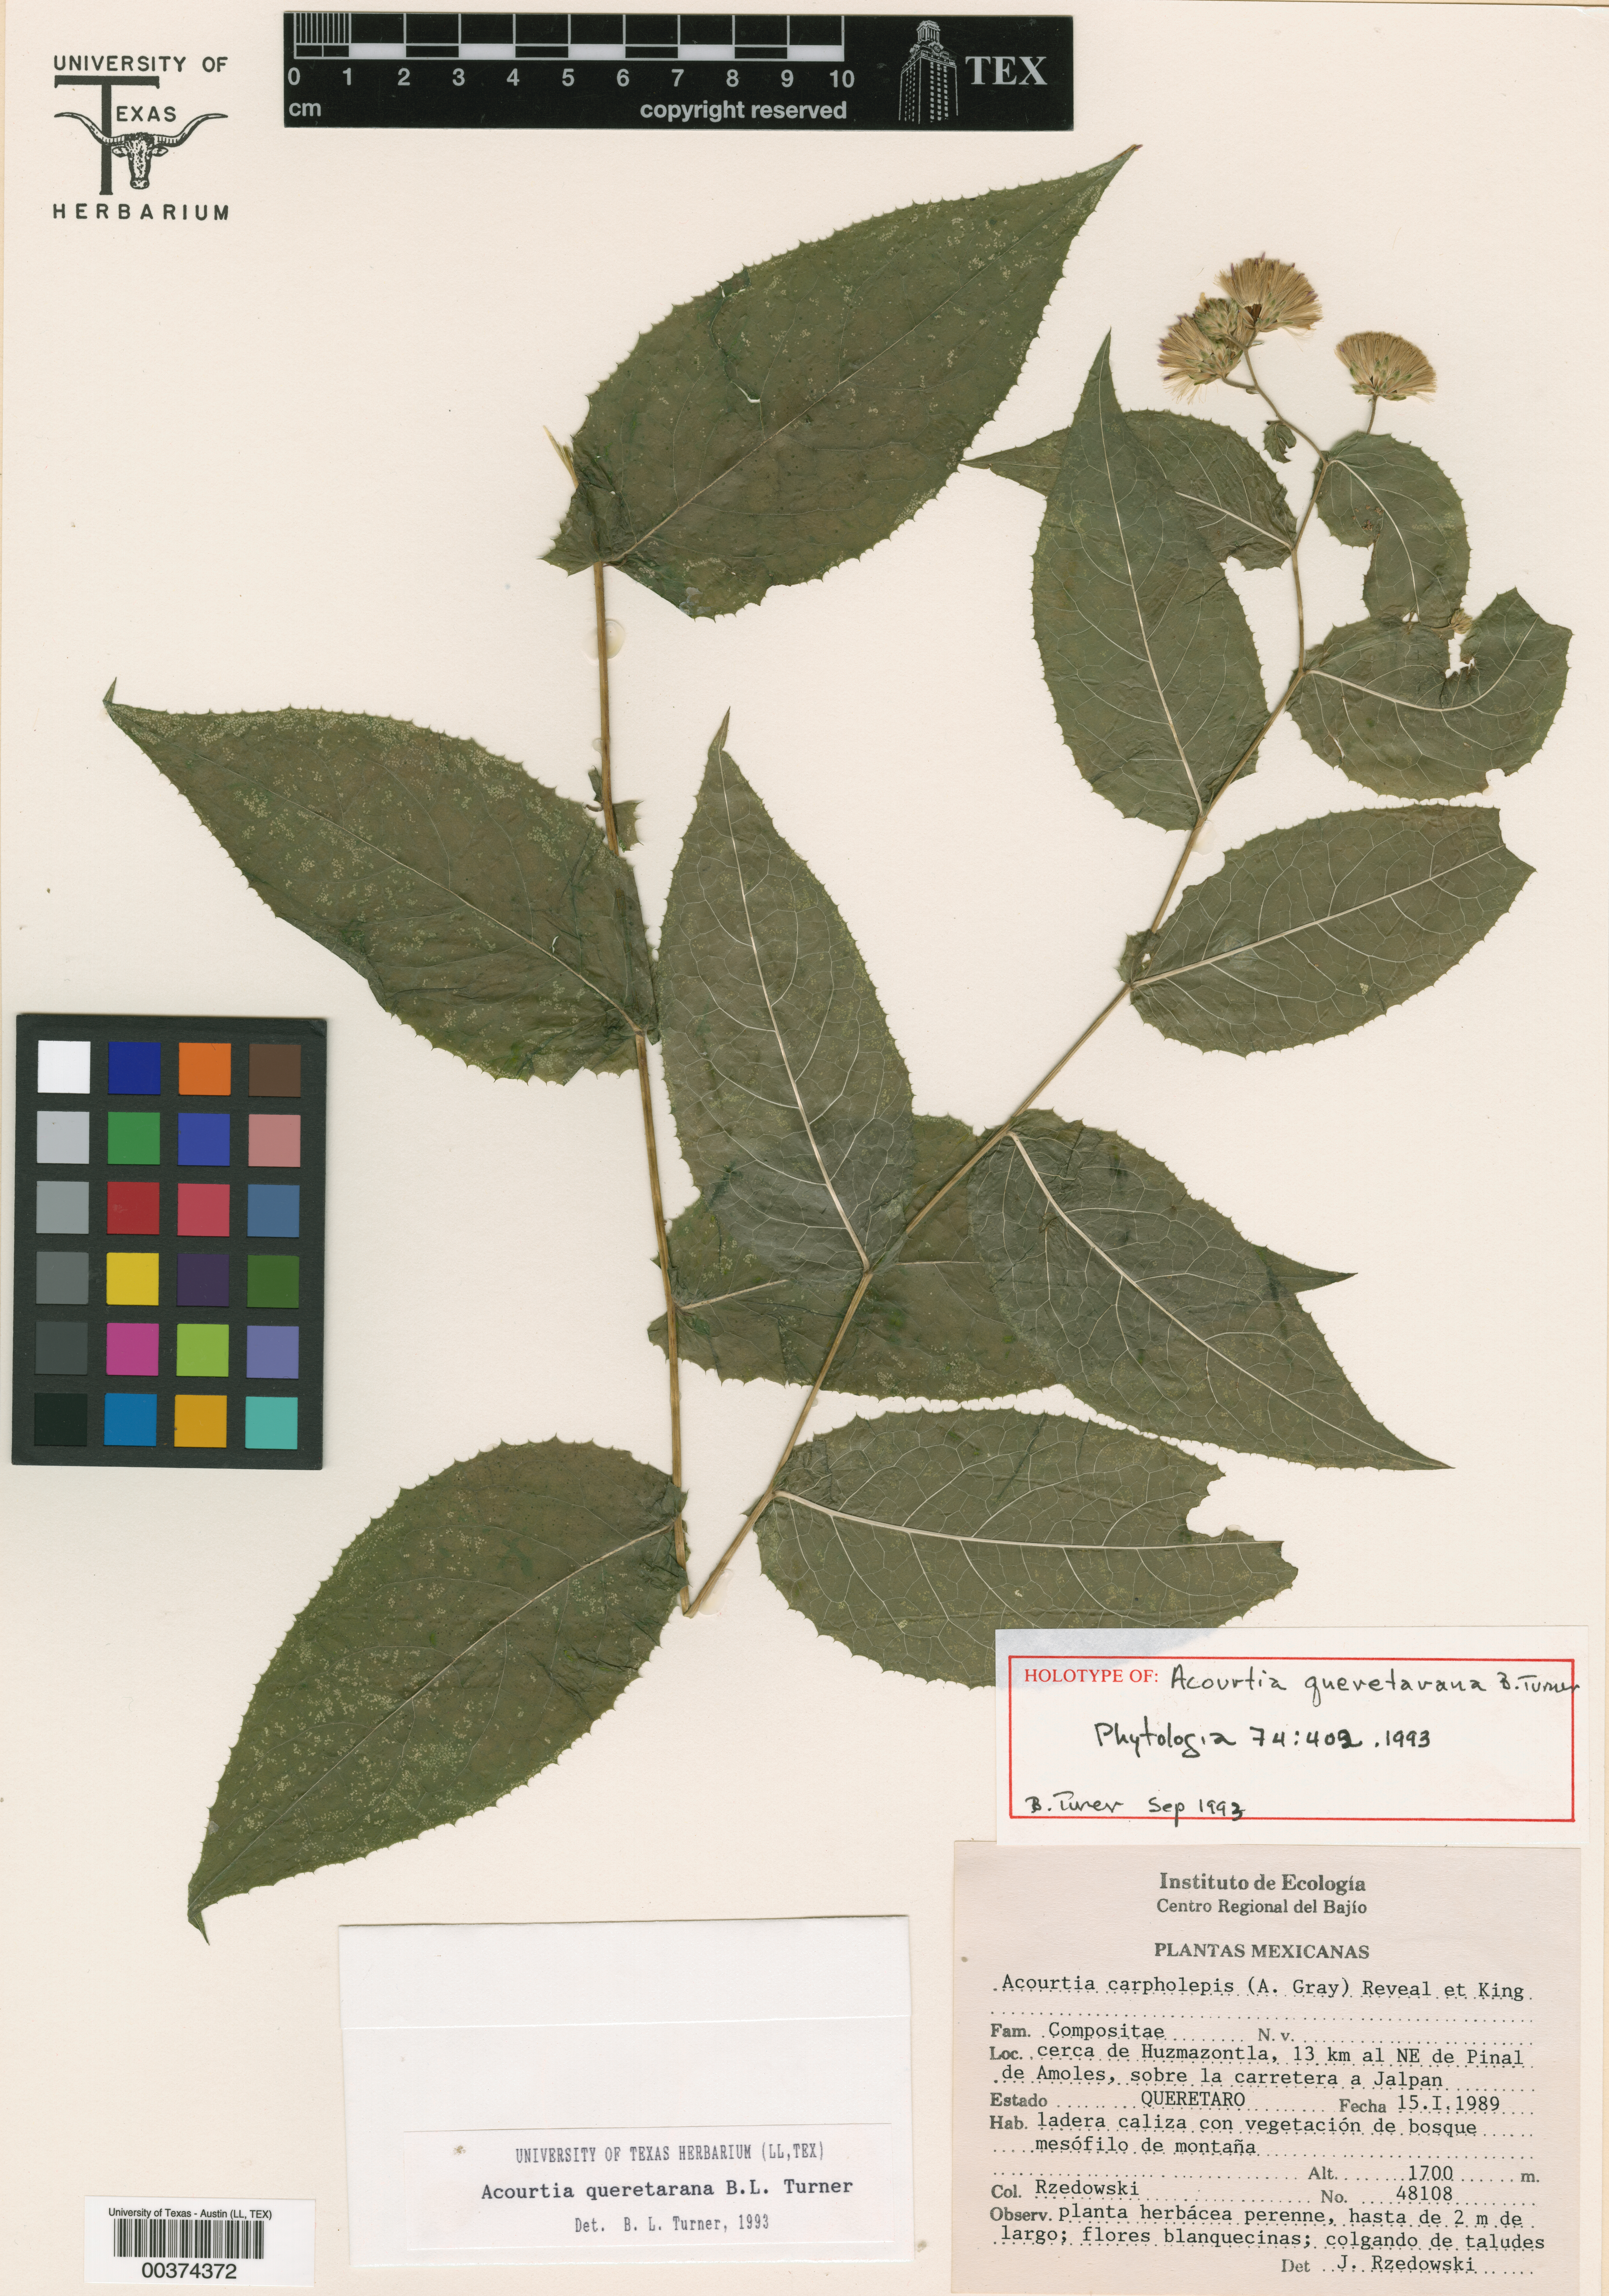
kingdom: Plantae
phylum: Tracheophyta
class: Magnoliopsida
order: Asterales
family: Asteraceae
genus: Acourtia
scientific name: Acourtia dugesii
